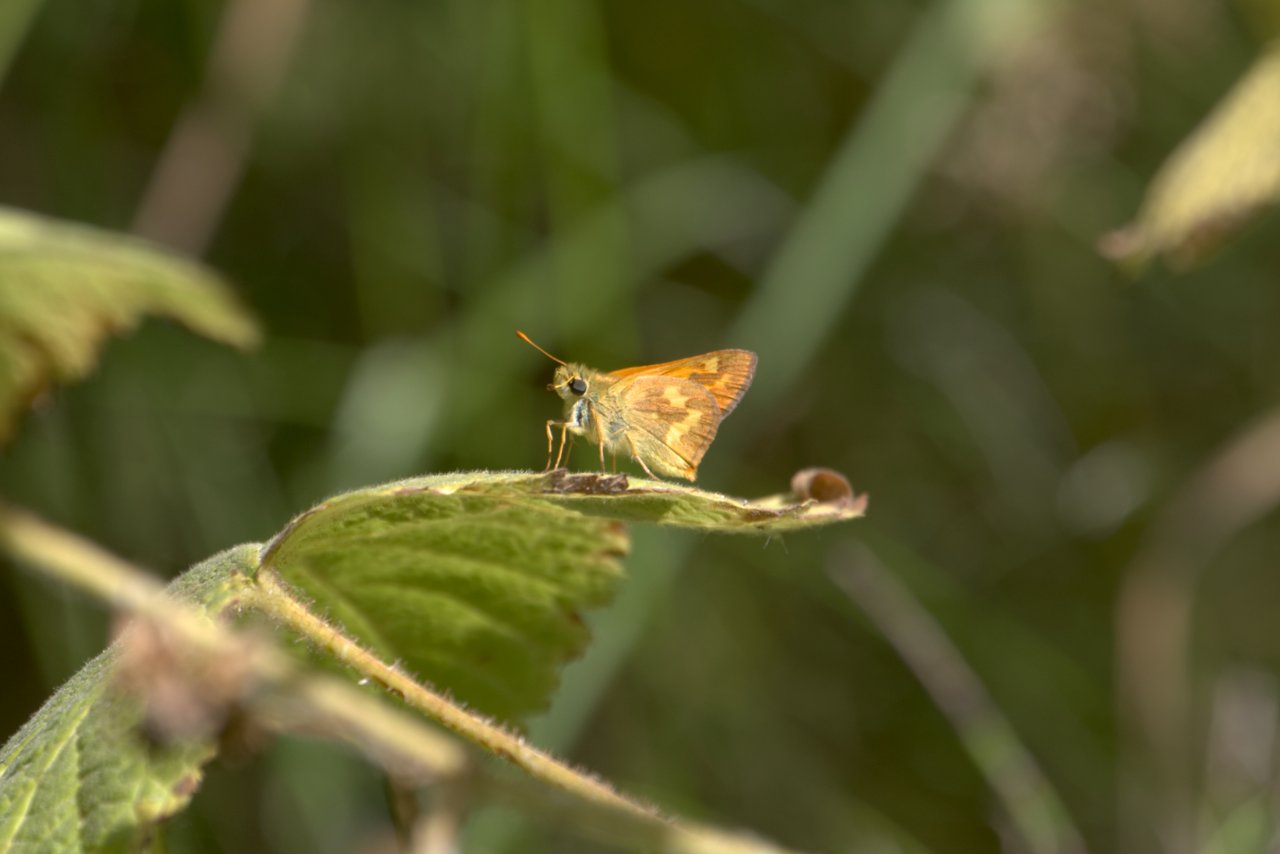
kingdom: Animalia
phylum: Arthropoda
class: Insecta
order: Lepidoptera
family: Hesperiidae
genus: Ochlodes
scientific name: Ochlodes sylvanoides
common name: Woodland Skipper
